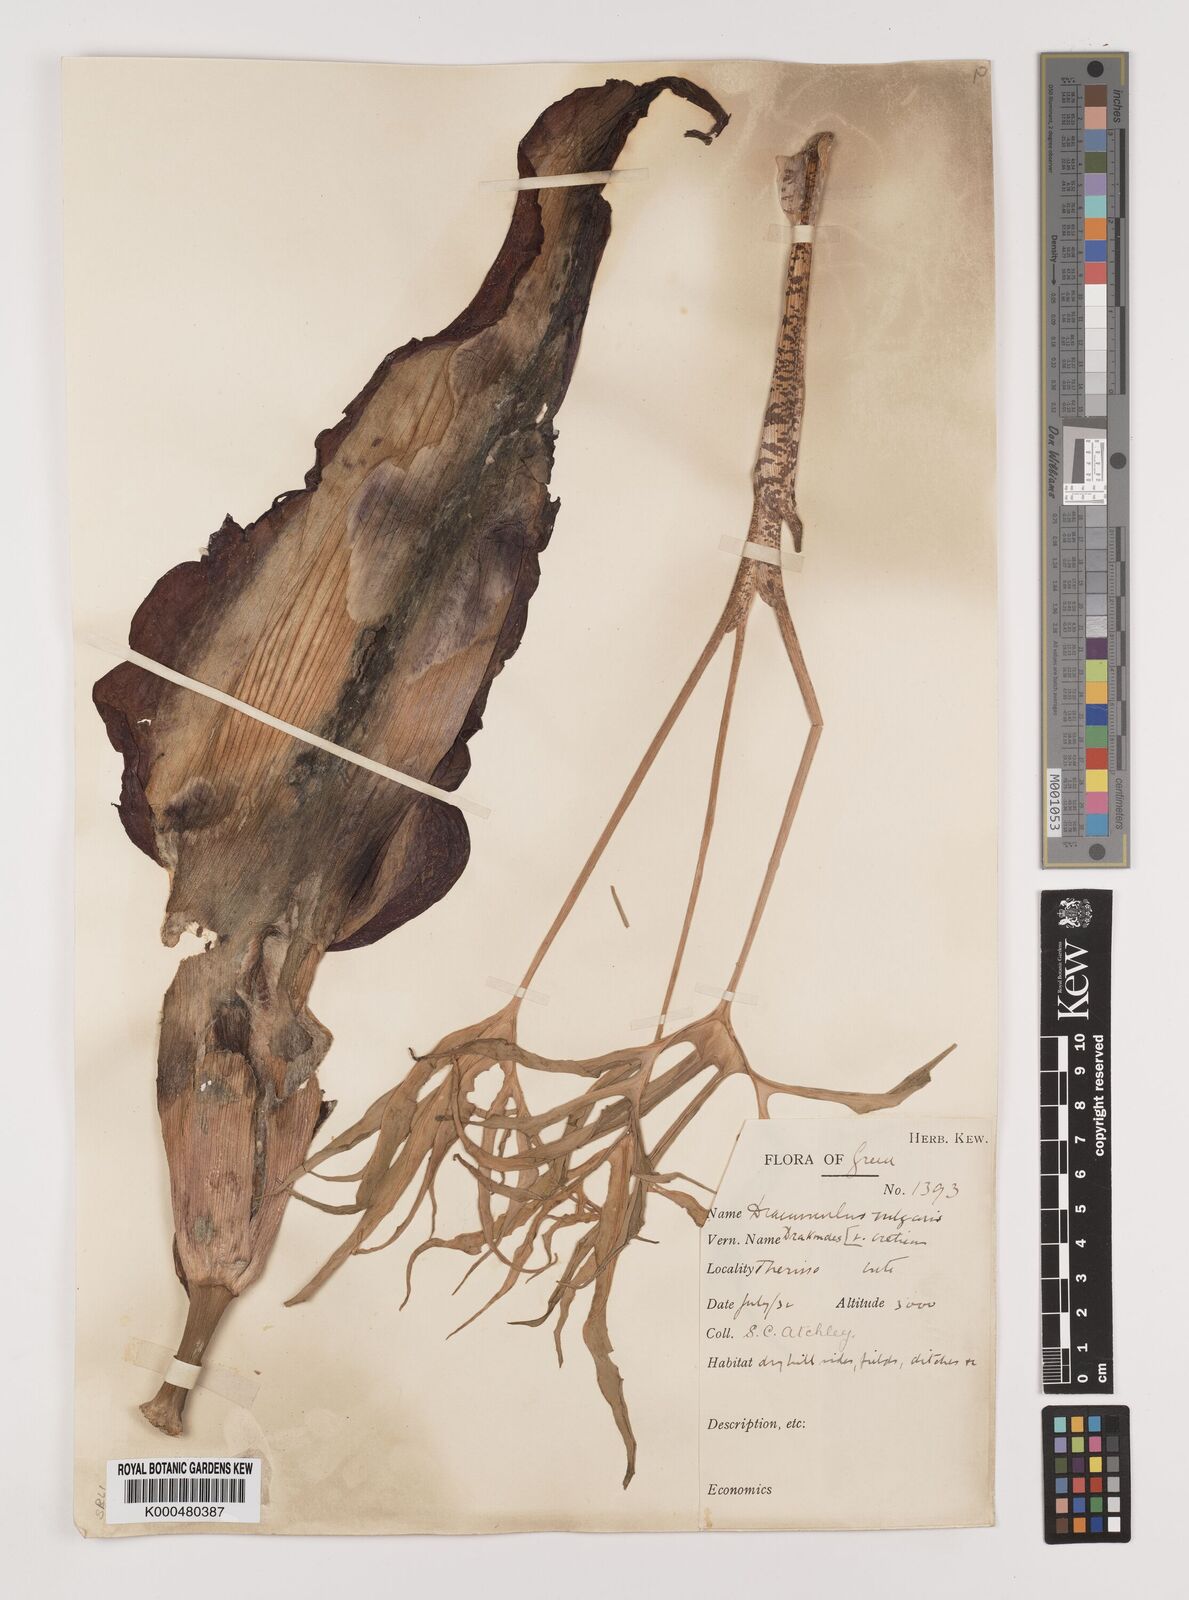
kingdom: Plantae
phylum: Tracheophyta
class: Liliopsida
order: Alismatales
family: Araceae
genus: Dracunculus
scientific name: Dracunculus vulgaris
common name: Dragon arum
